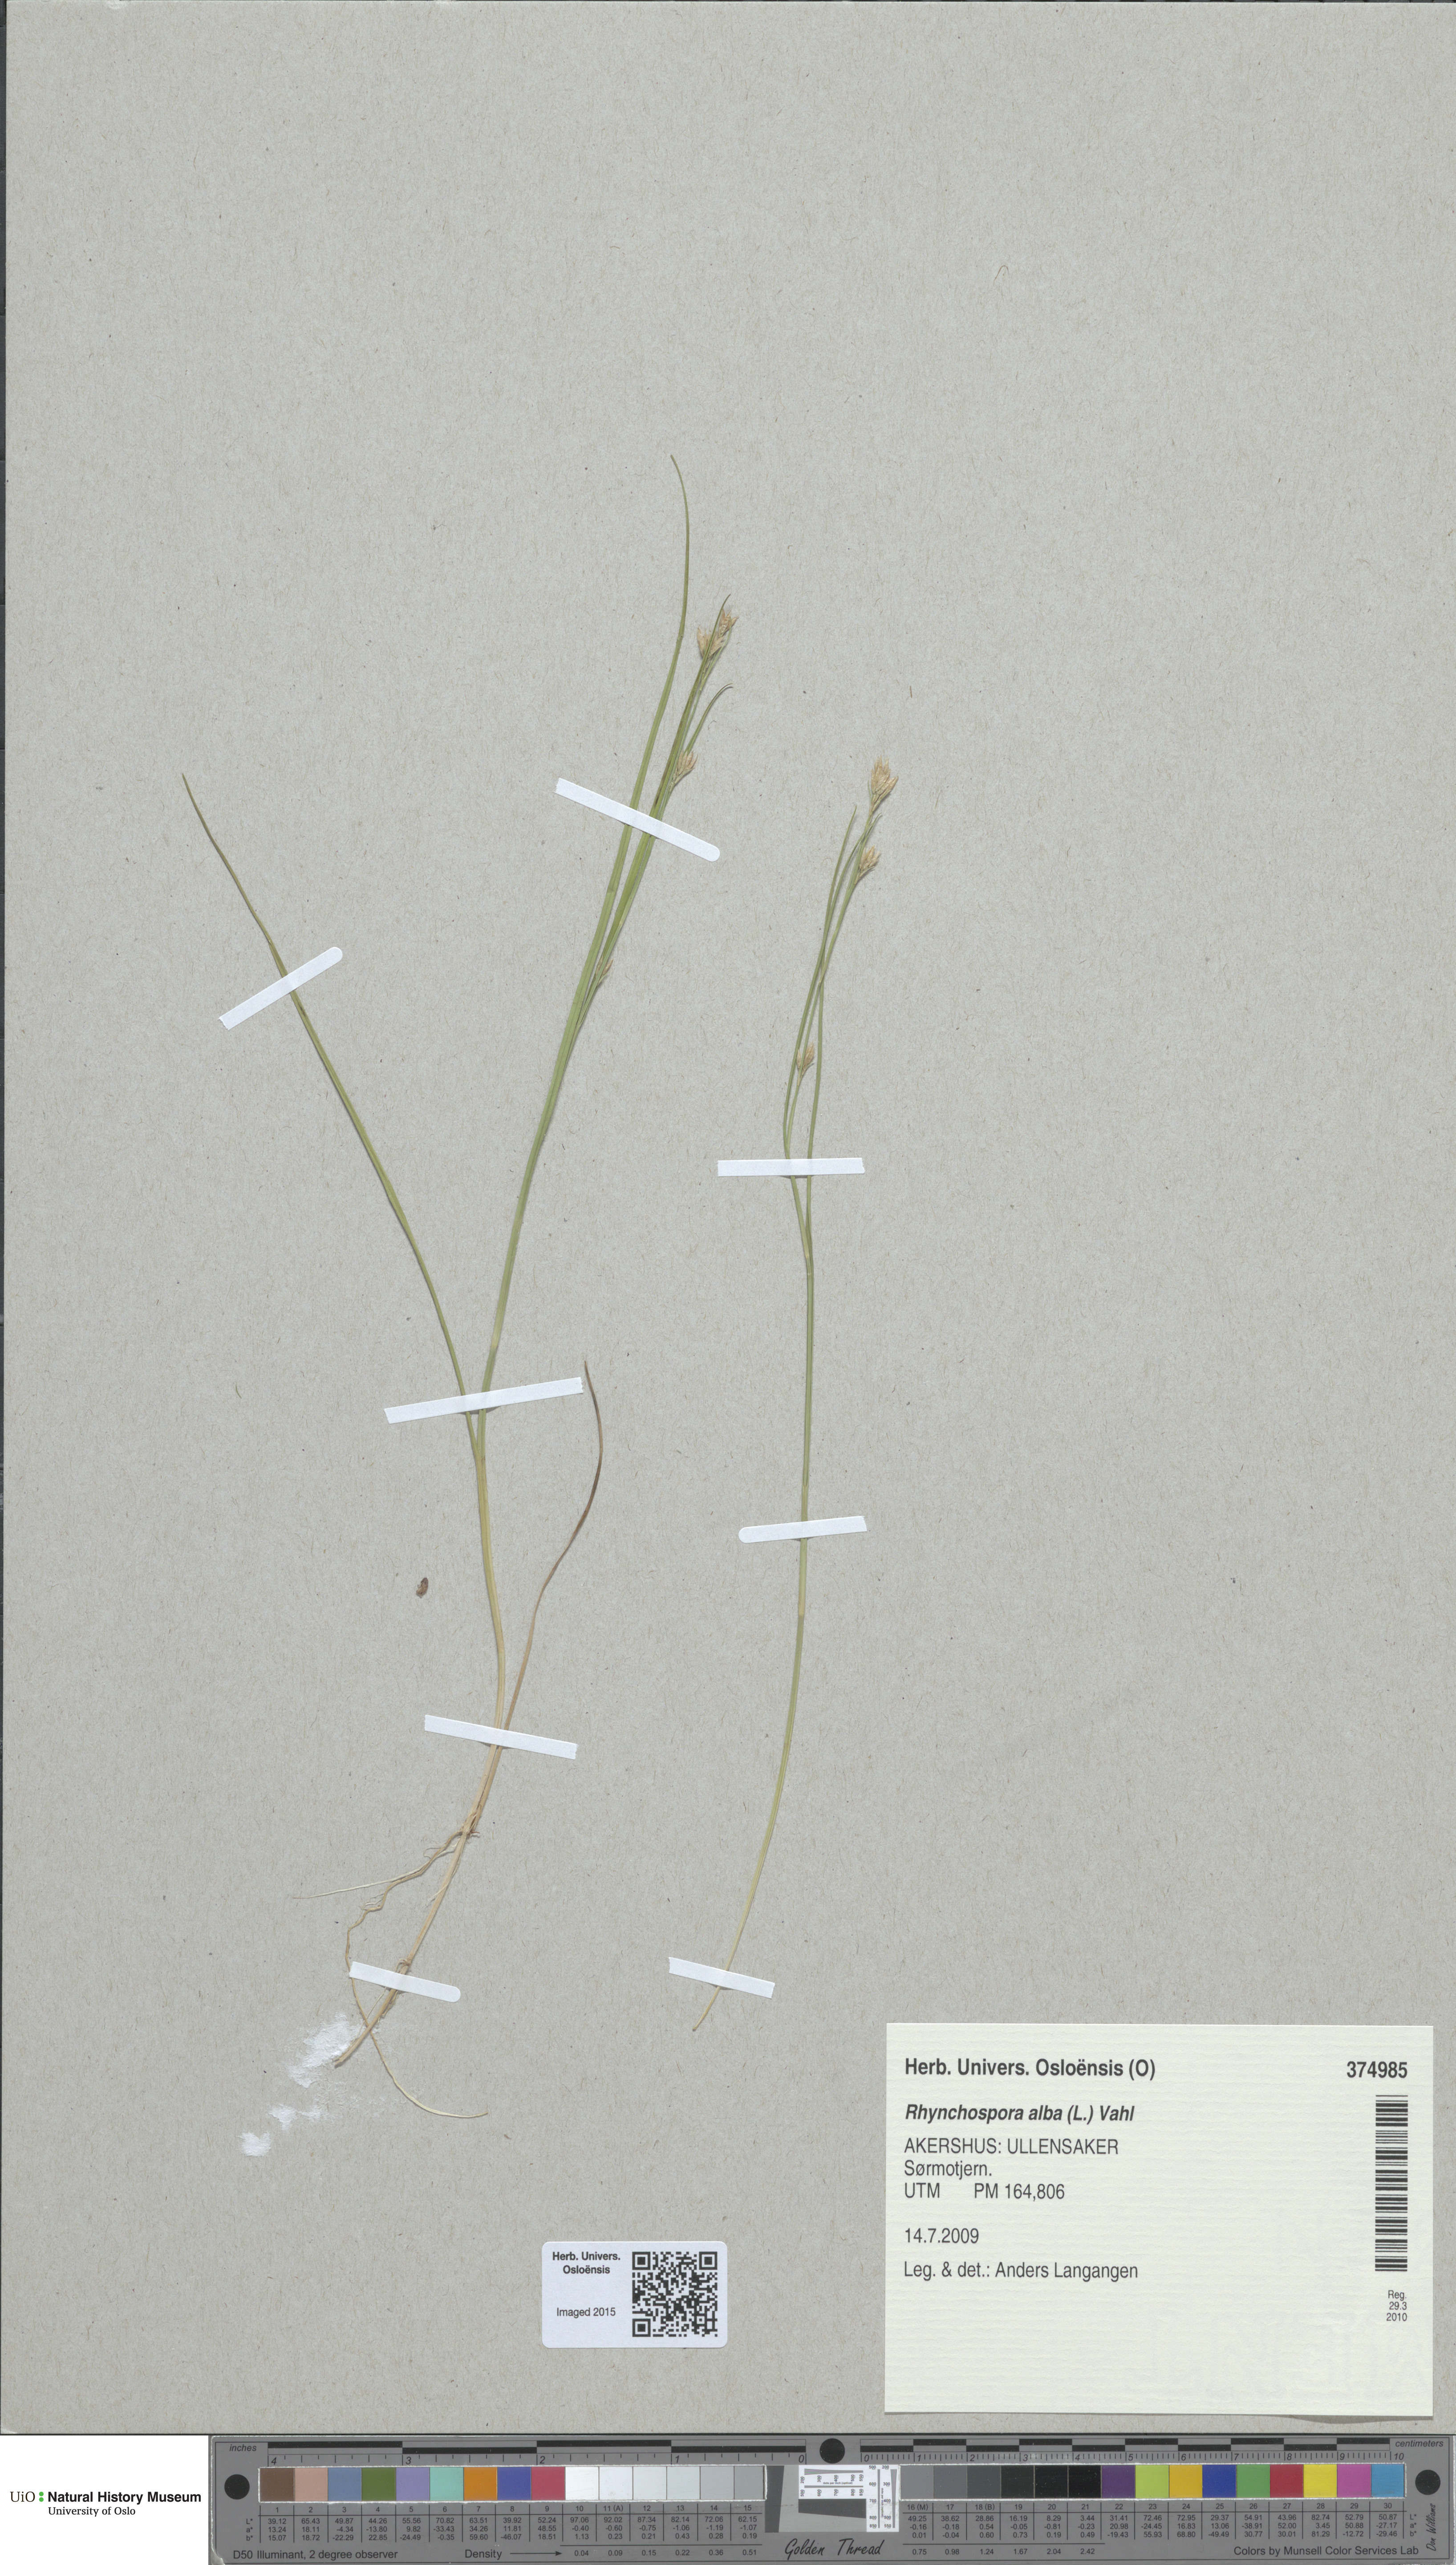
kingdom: Plantae
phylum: Tracheophyta
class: Liliopsida
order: Poales
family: Cyperaceae
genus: Rhynchospora
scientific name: Rhynchospora alba
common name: White beak-sedge
